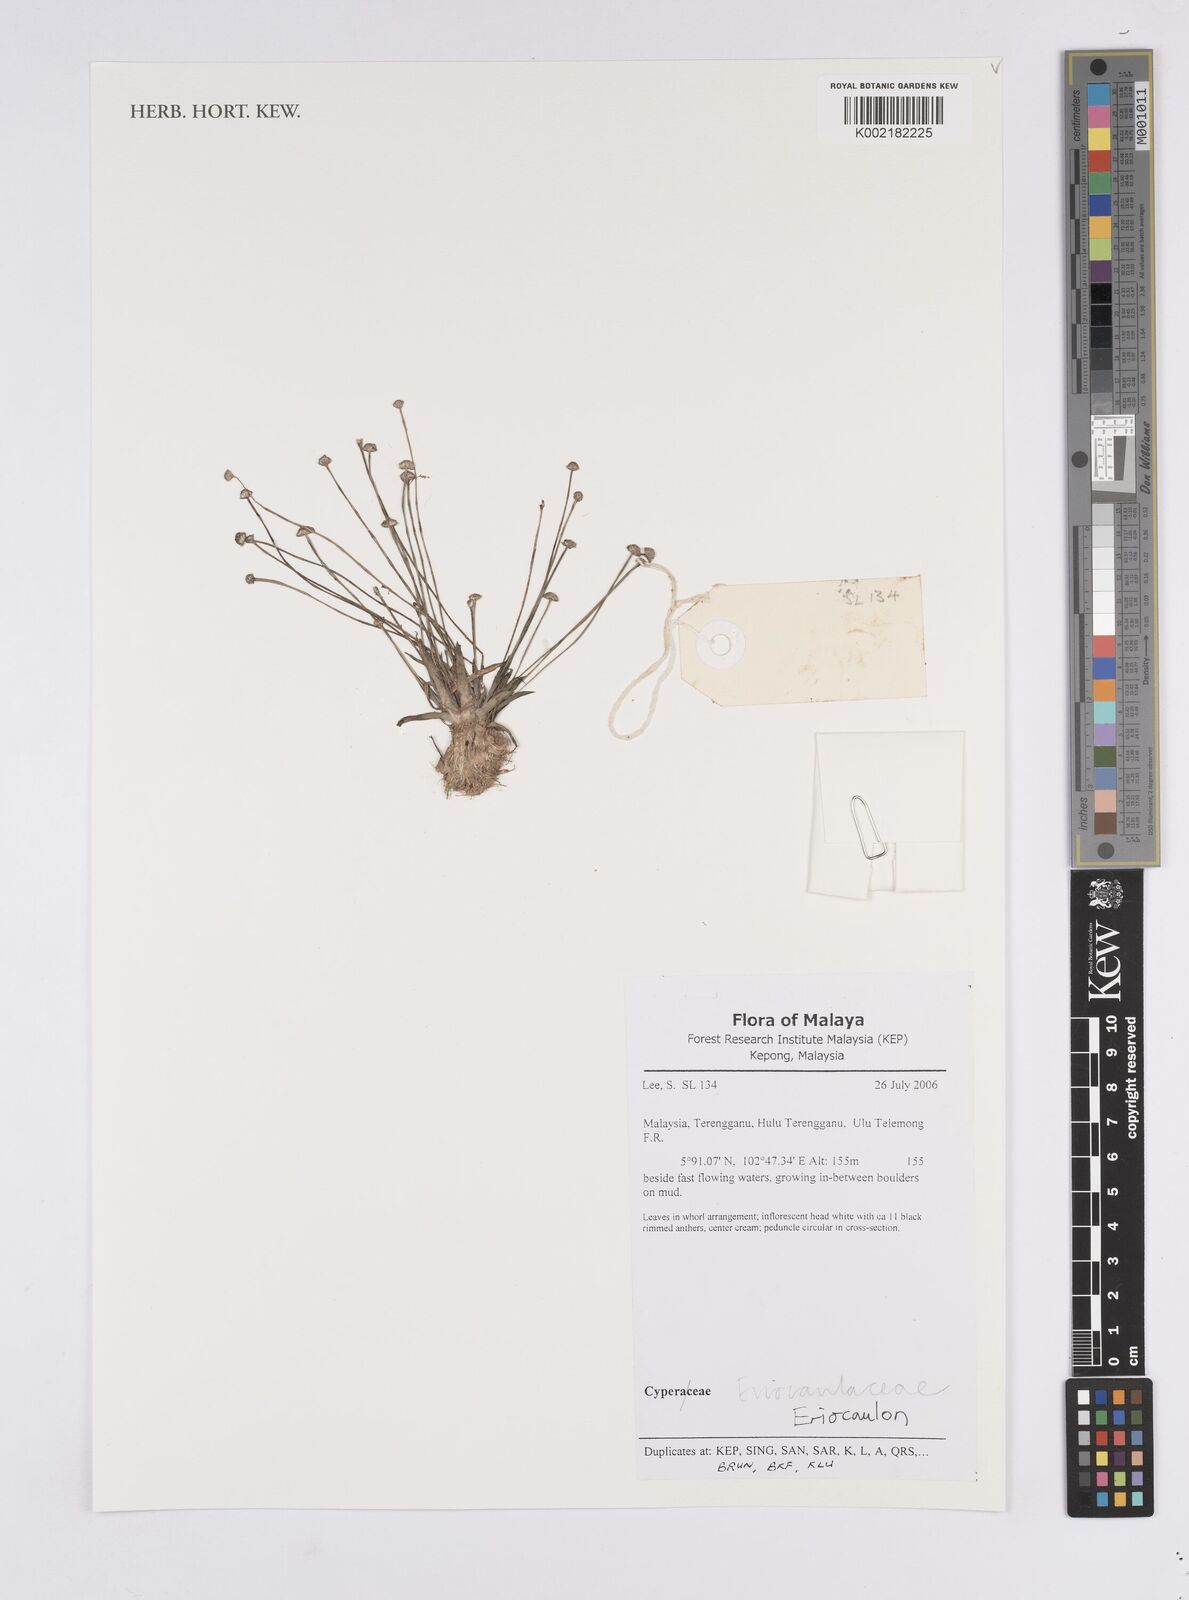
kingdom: Plantae
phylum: Tracheophyta
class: Liliopsida
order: Poales
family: Eriocaulaceae
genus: Eriocaulon
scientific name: Eriocaulon
